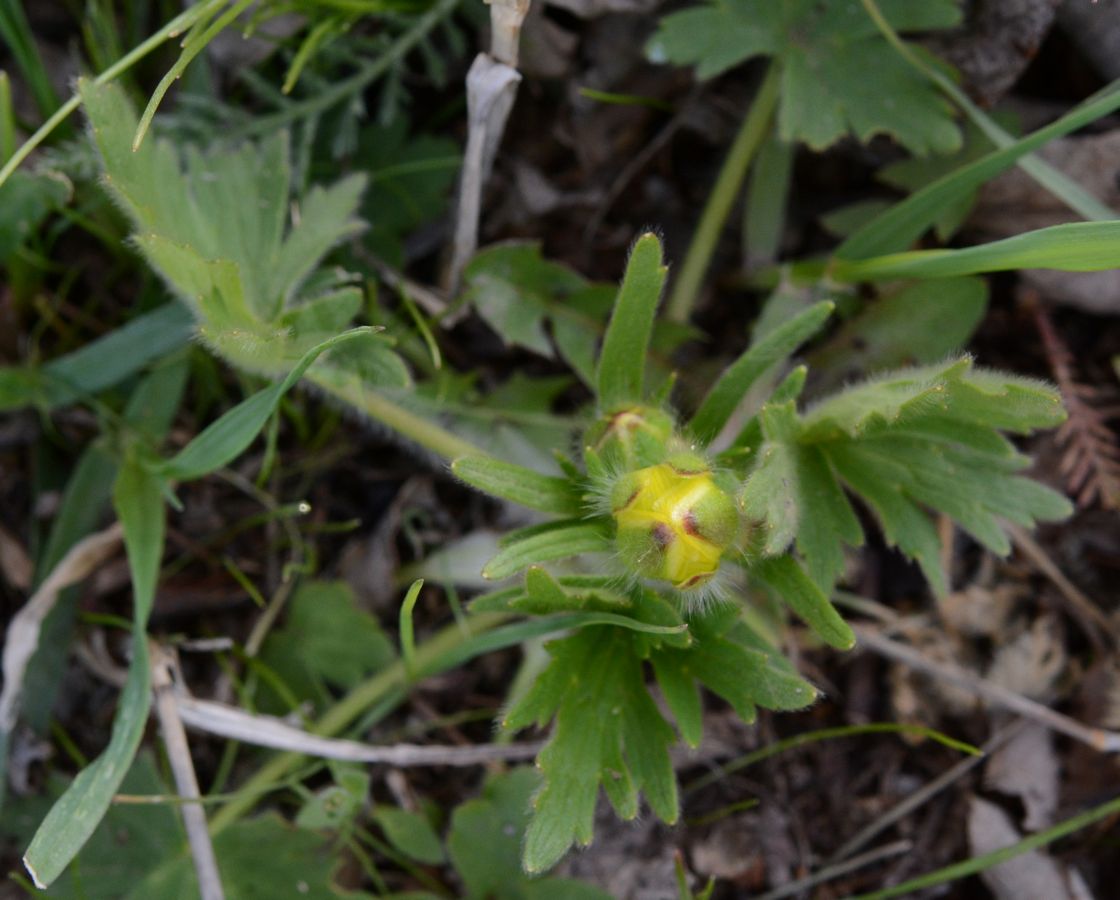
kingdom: Plantae
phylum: Tracheophyta
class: Magnoliopsida
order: Ranunculales
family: Ranunculaceae
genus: Ranunculus
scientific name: Ranunculus oxyspermus
